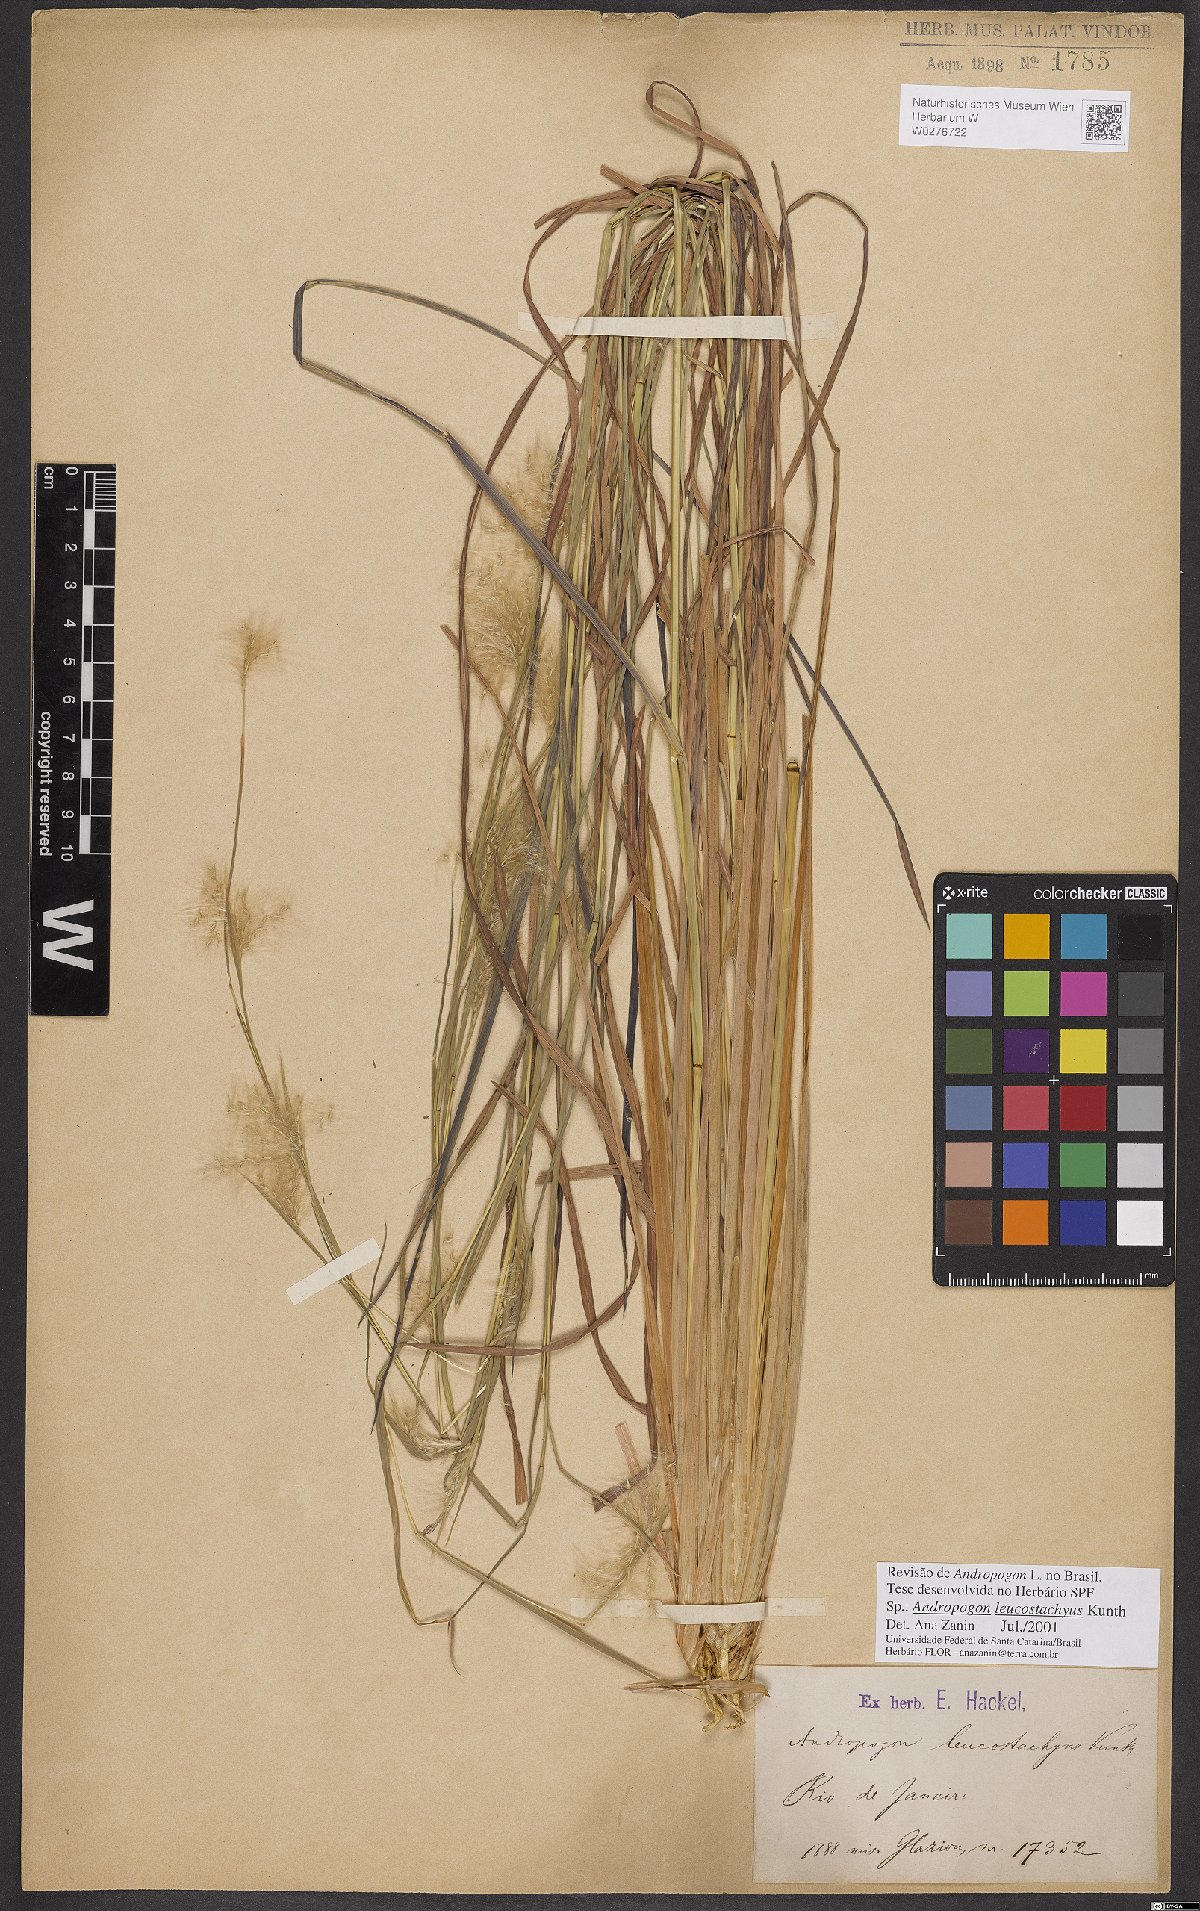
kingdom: Plantae
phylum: Tracheophyta
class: Liliopsida
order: Poales
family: Poaceae
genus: Andropogon
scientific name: Andropogon leucostachyus
